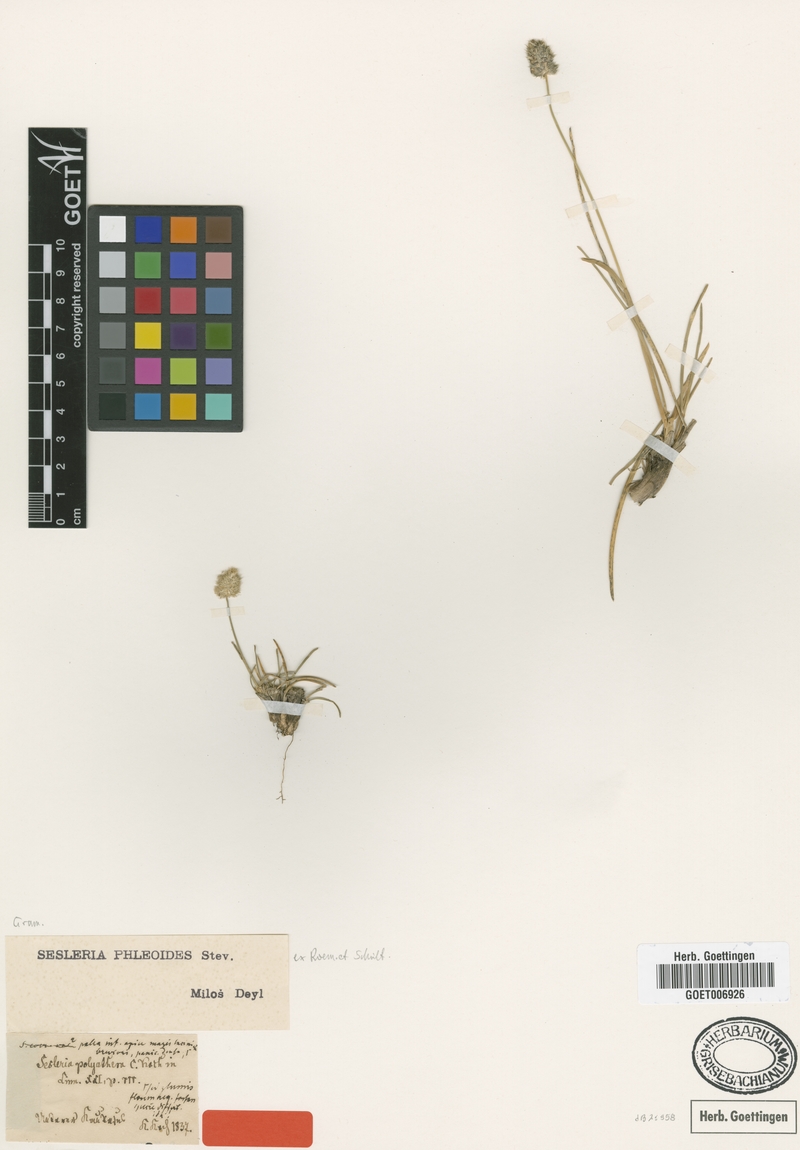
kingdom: Plantae
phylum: Tracheophyta
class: Liliopsida
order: Poales
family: Poaceae
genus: Sesleria
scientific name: Sesleria phleoides
